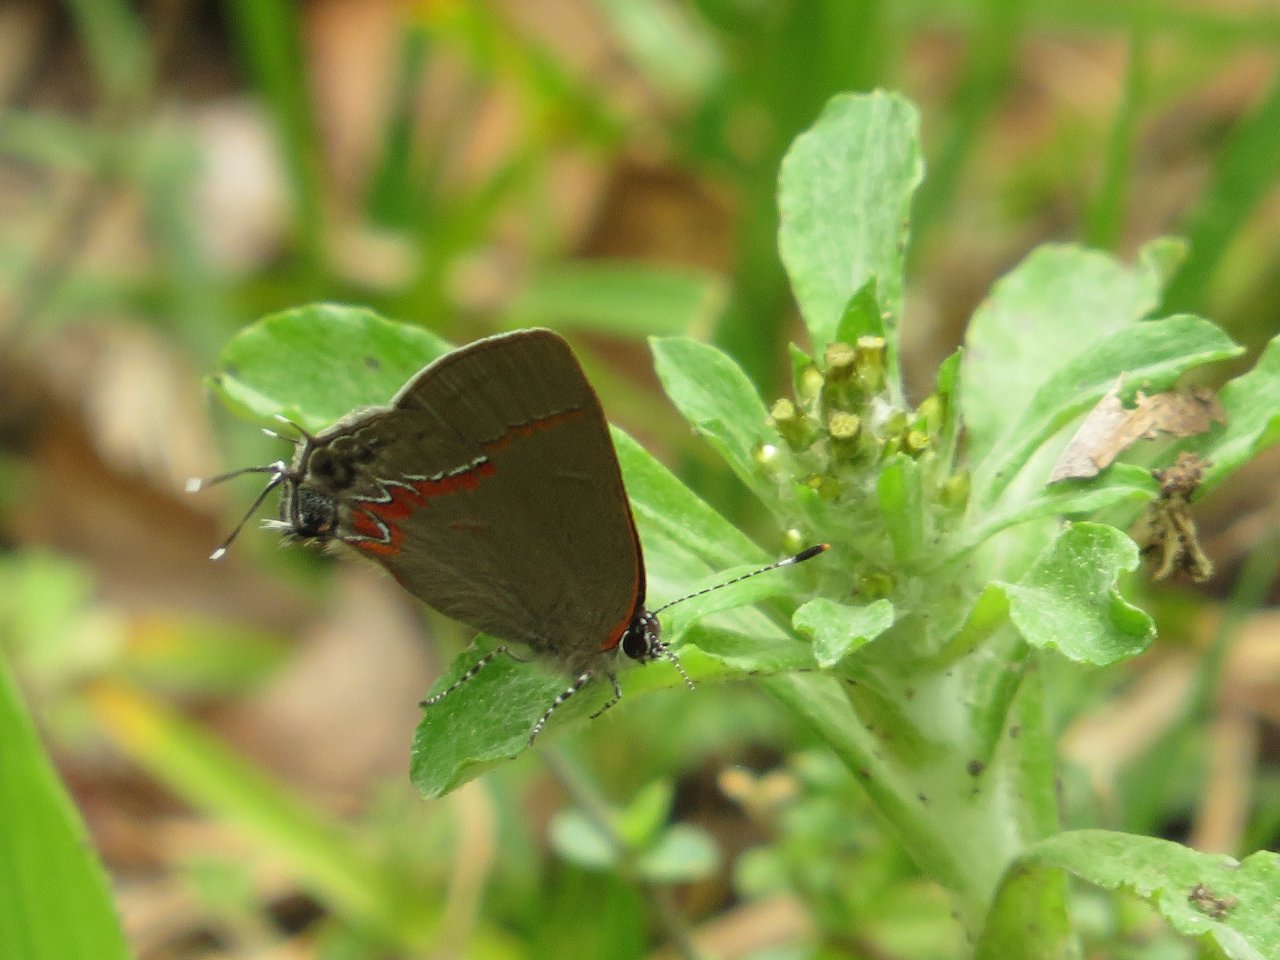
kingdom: Animalia
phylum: Arthropoda
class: Insecta
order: Lepidoptera
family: Lycaenidae
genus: Calycopis
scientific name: Calycopis cecrops
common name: Red-banded Hairstreak
